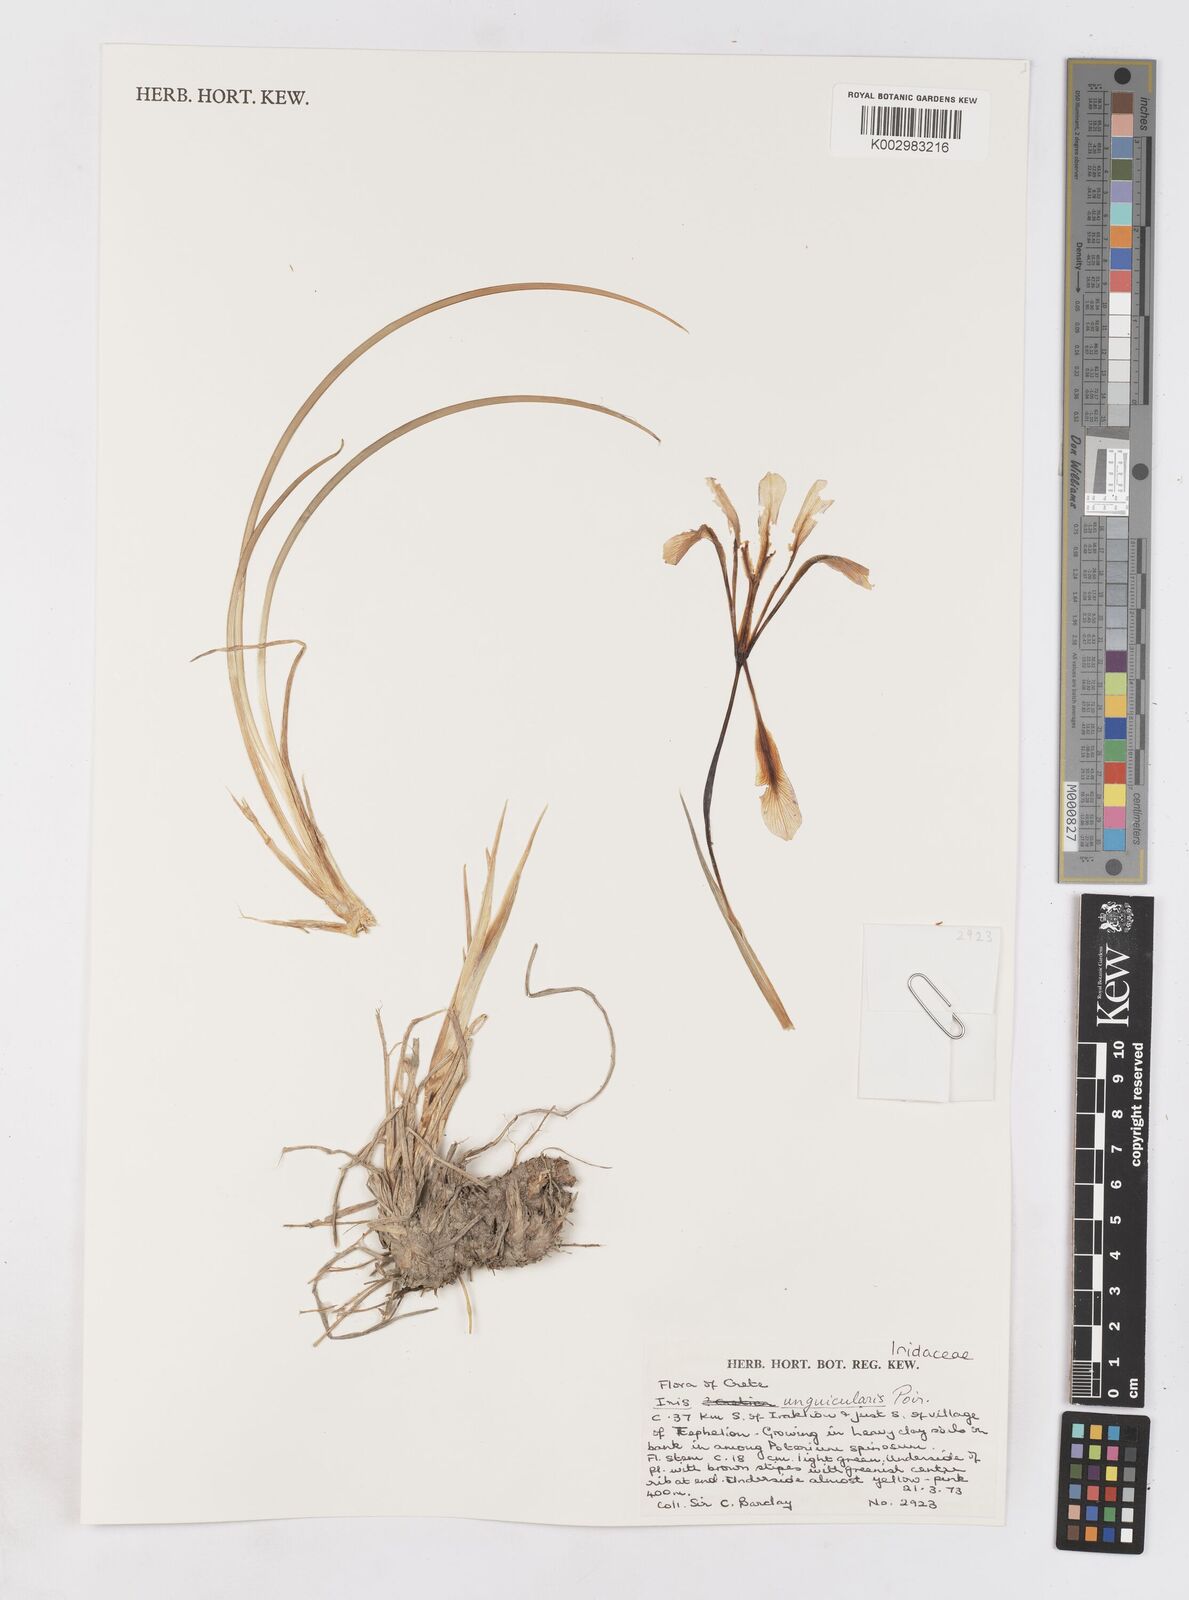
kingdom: Plantae
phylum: Tracheophyta
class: Liliopsida
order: Asparagales
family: Iridaceae
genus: Iris
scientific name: Iris unguicularis
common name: Algerian iris
